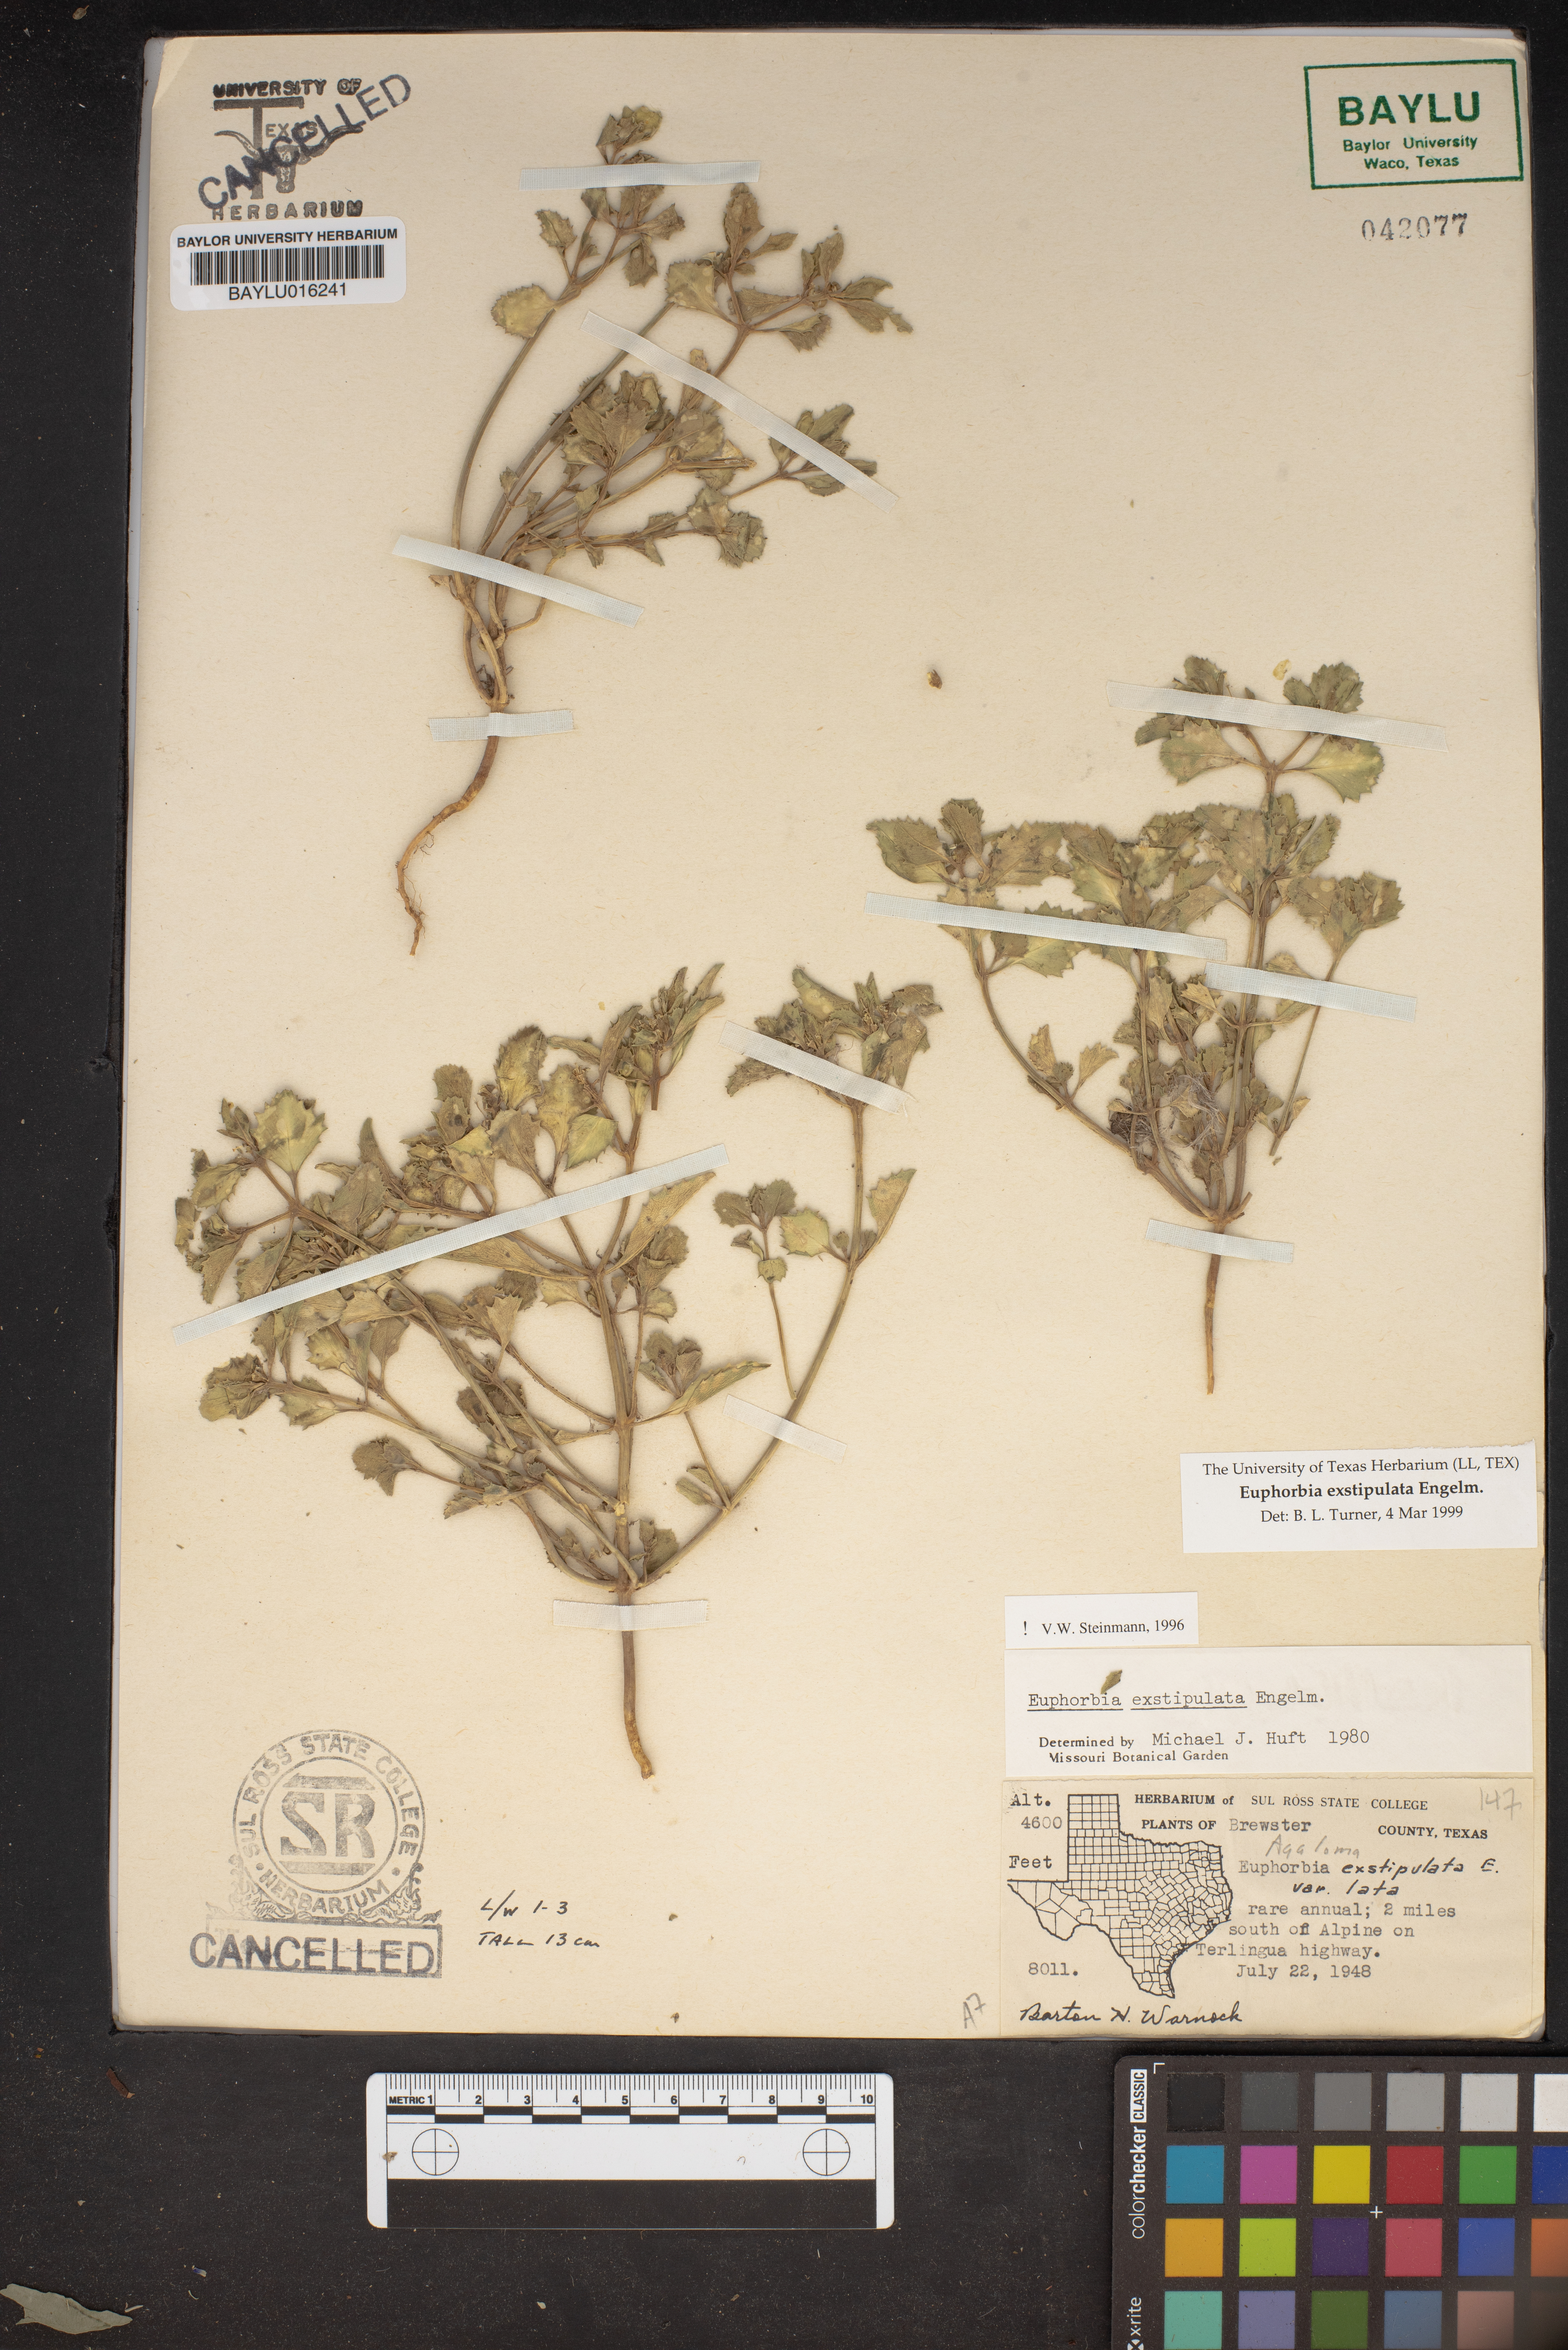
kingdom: Plantae
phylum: Tracheophyta
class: Magnoliopsida
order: Malpighiales
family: Euphorbiaceae
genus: Euphorbia
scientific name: Euphorbia exstipulata
